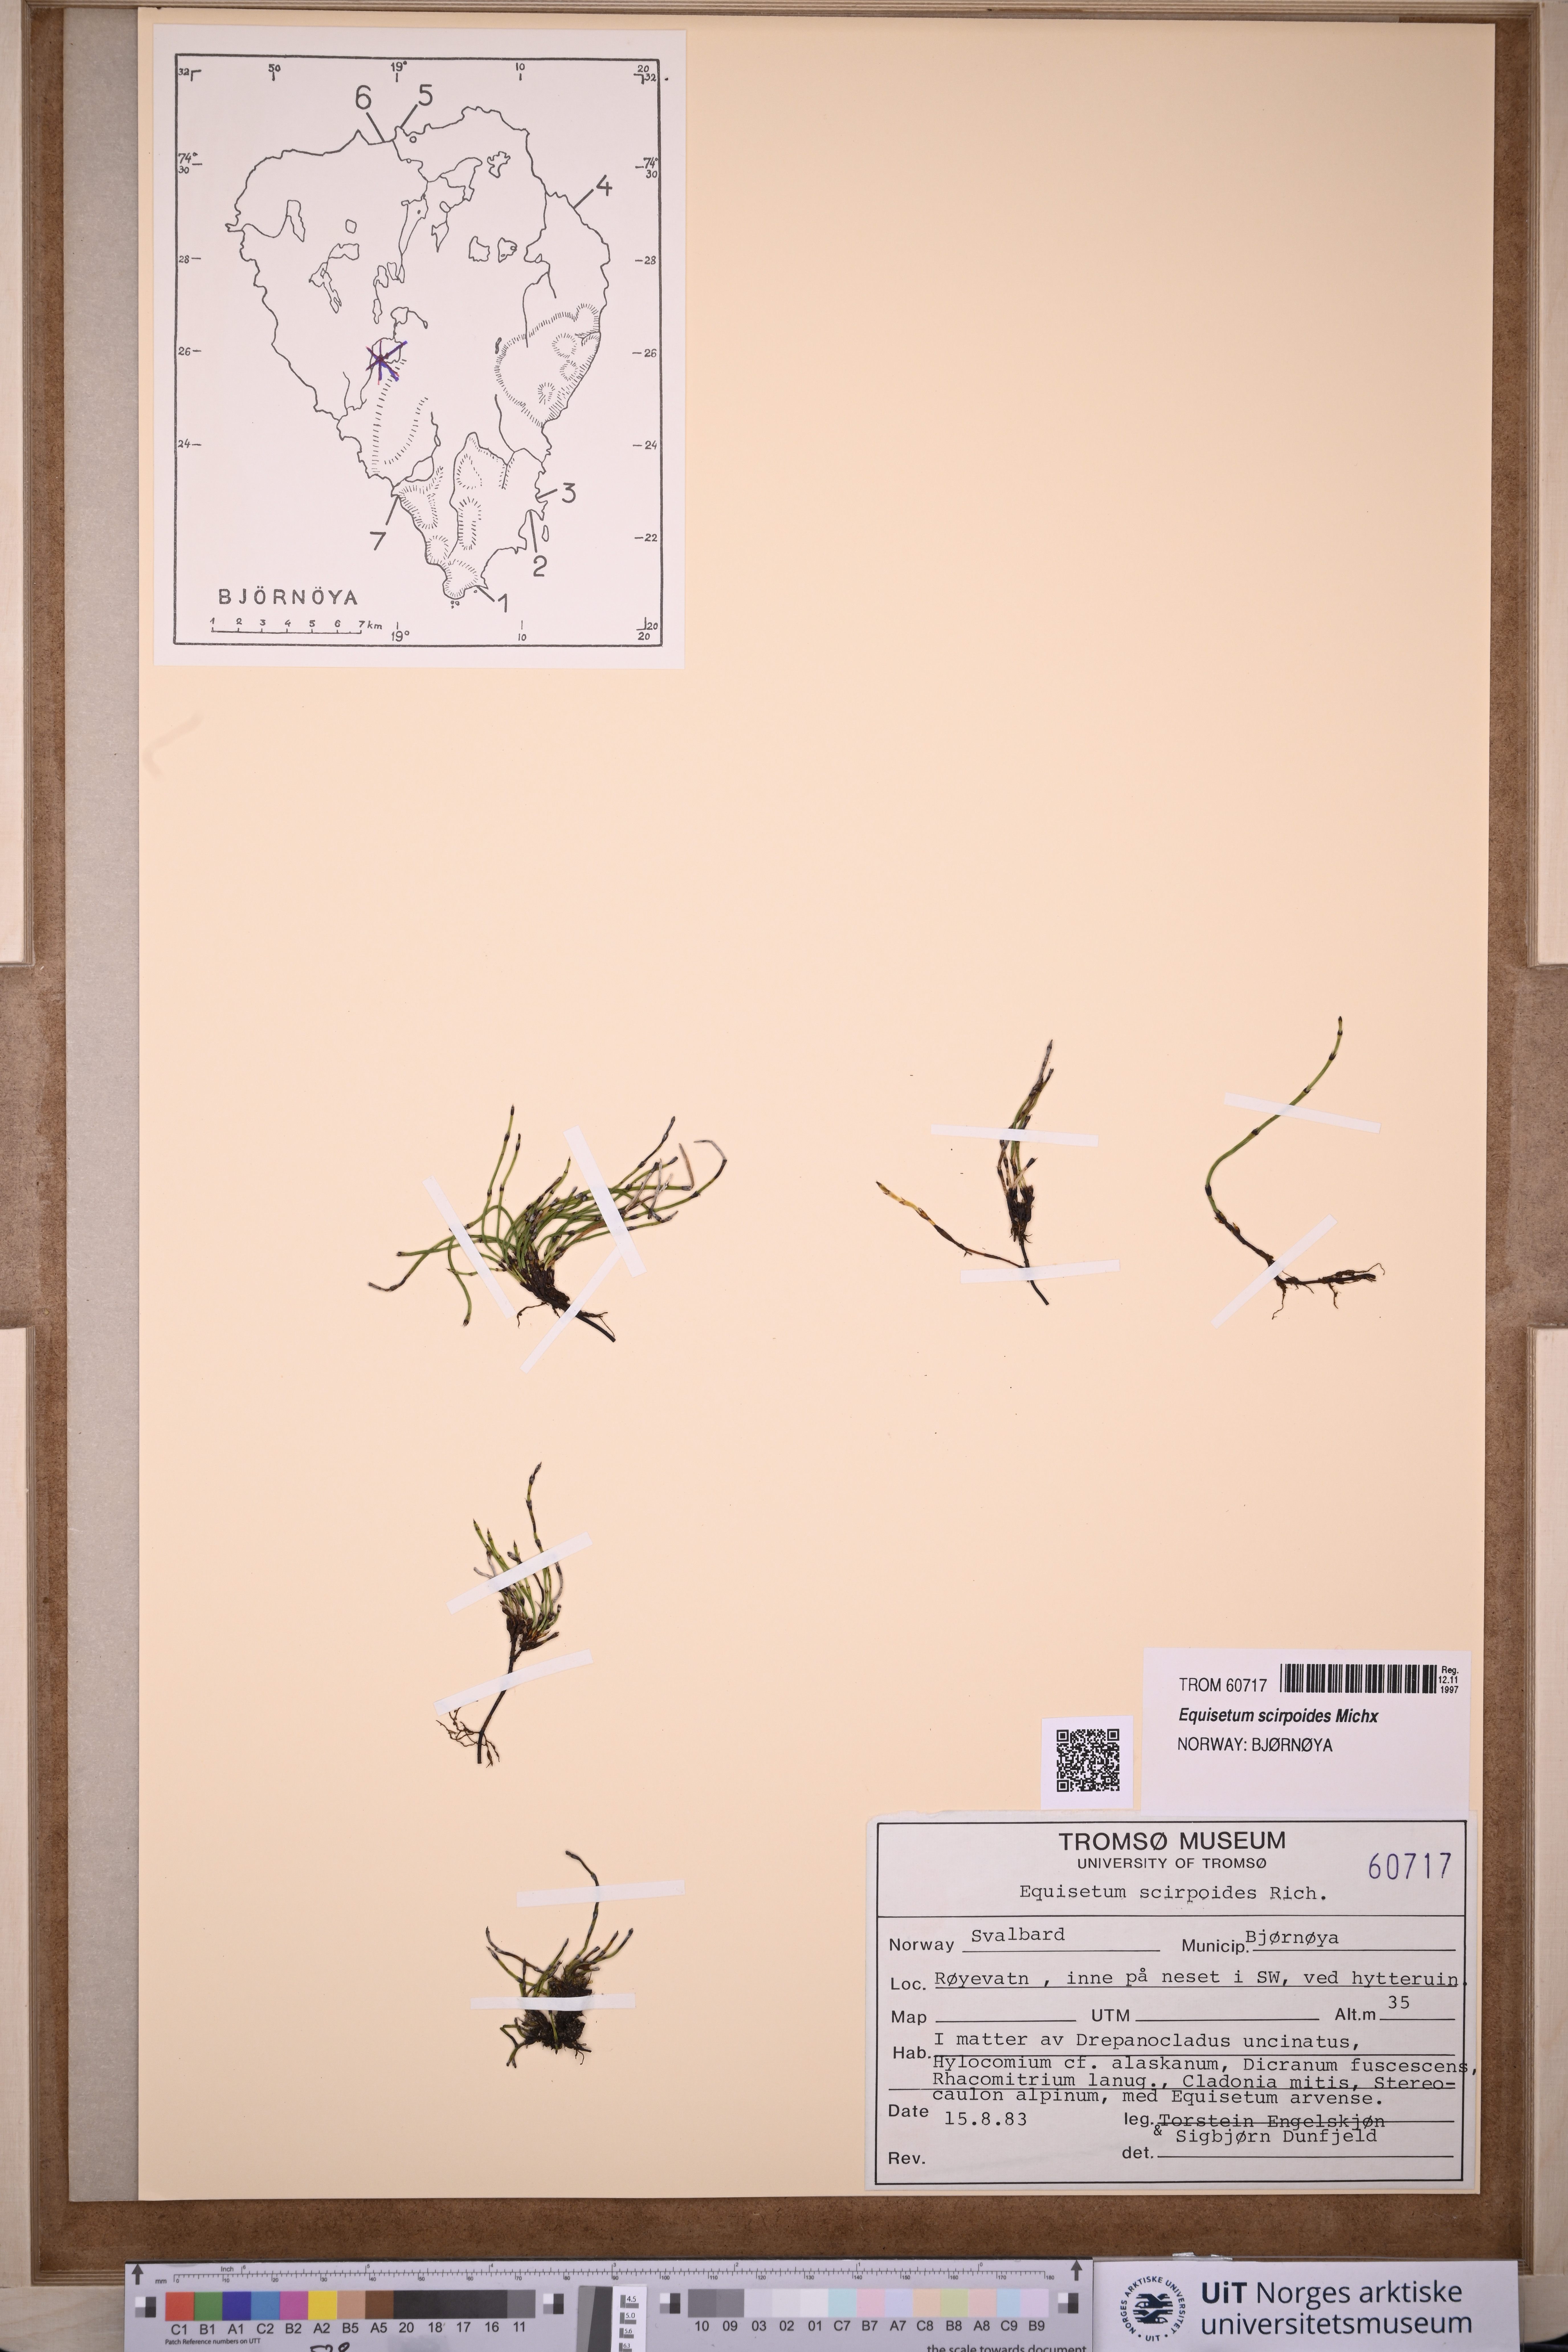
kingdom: Plantae
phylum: Tracheophyta
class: Polypodiopsida
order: Equisetales
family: Equisetaceae
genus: Equisetum
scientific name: Equisetum scirpoides
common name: Delicate horsetail
